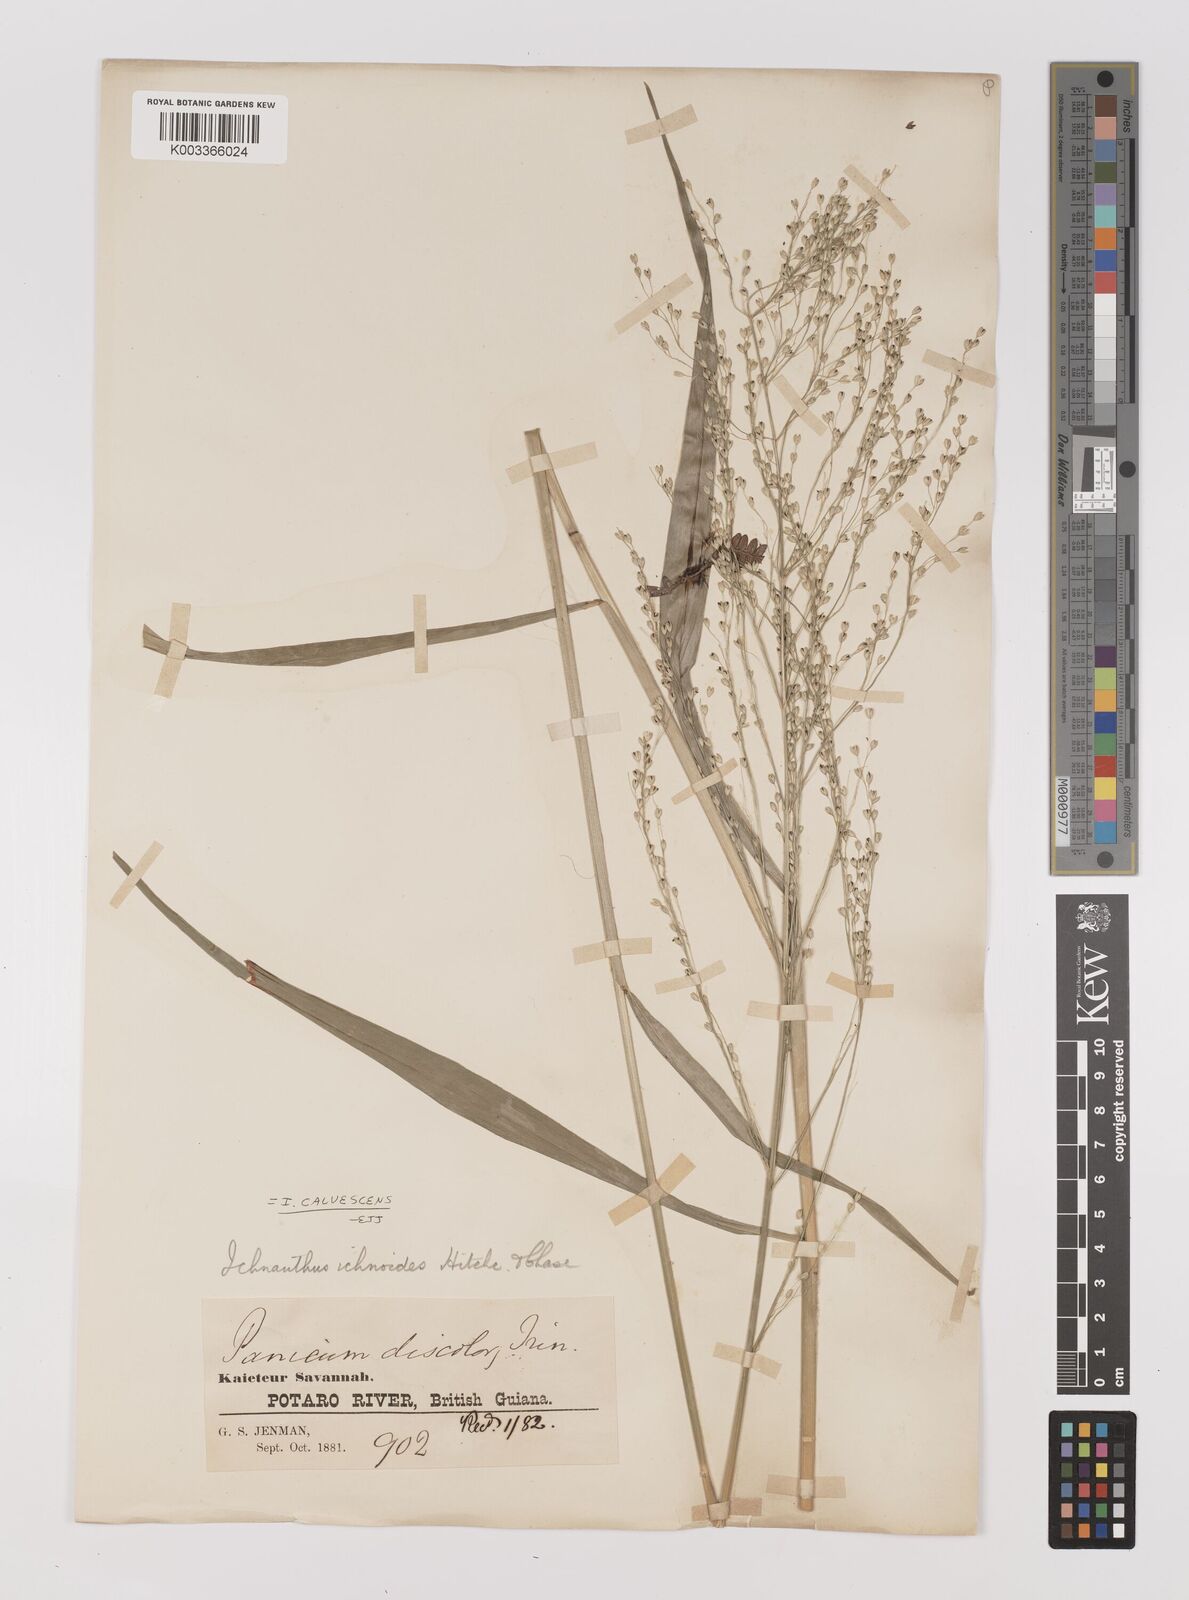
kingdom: Plantae
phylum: Tracheophyta
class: Liliopsida
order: Poales
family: Poaceae
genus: Ichnanthus
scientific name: Ichnanthus calvescens
